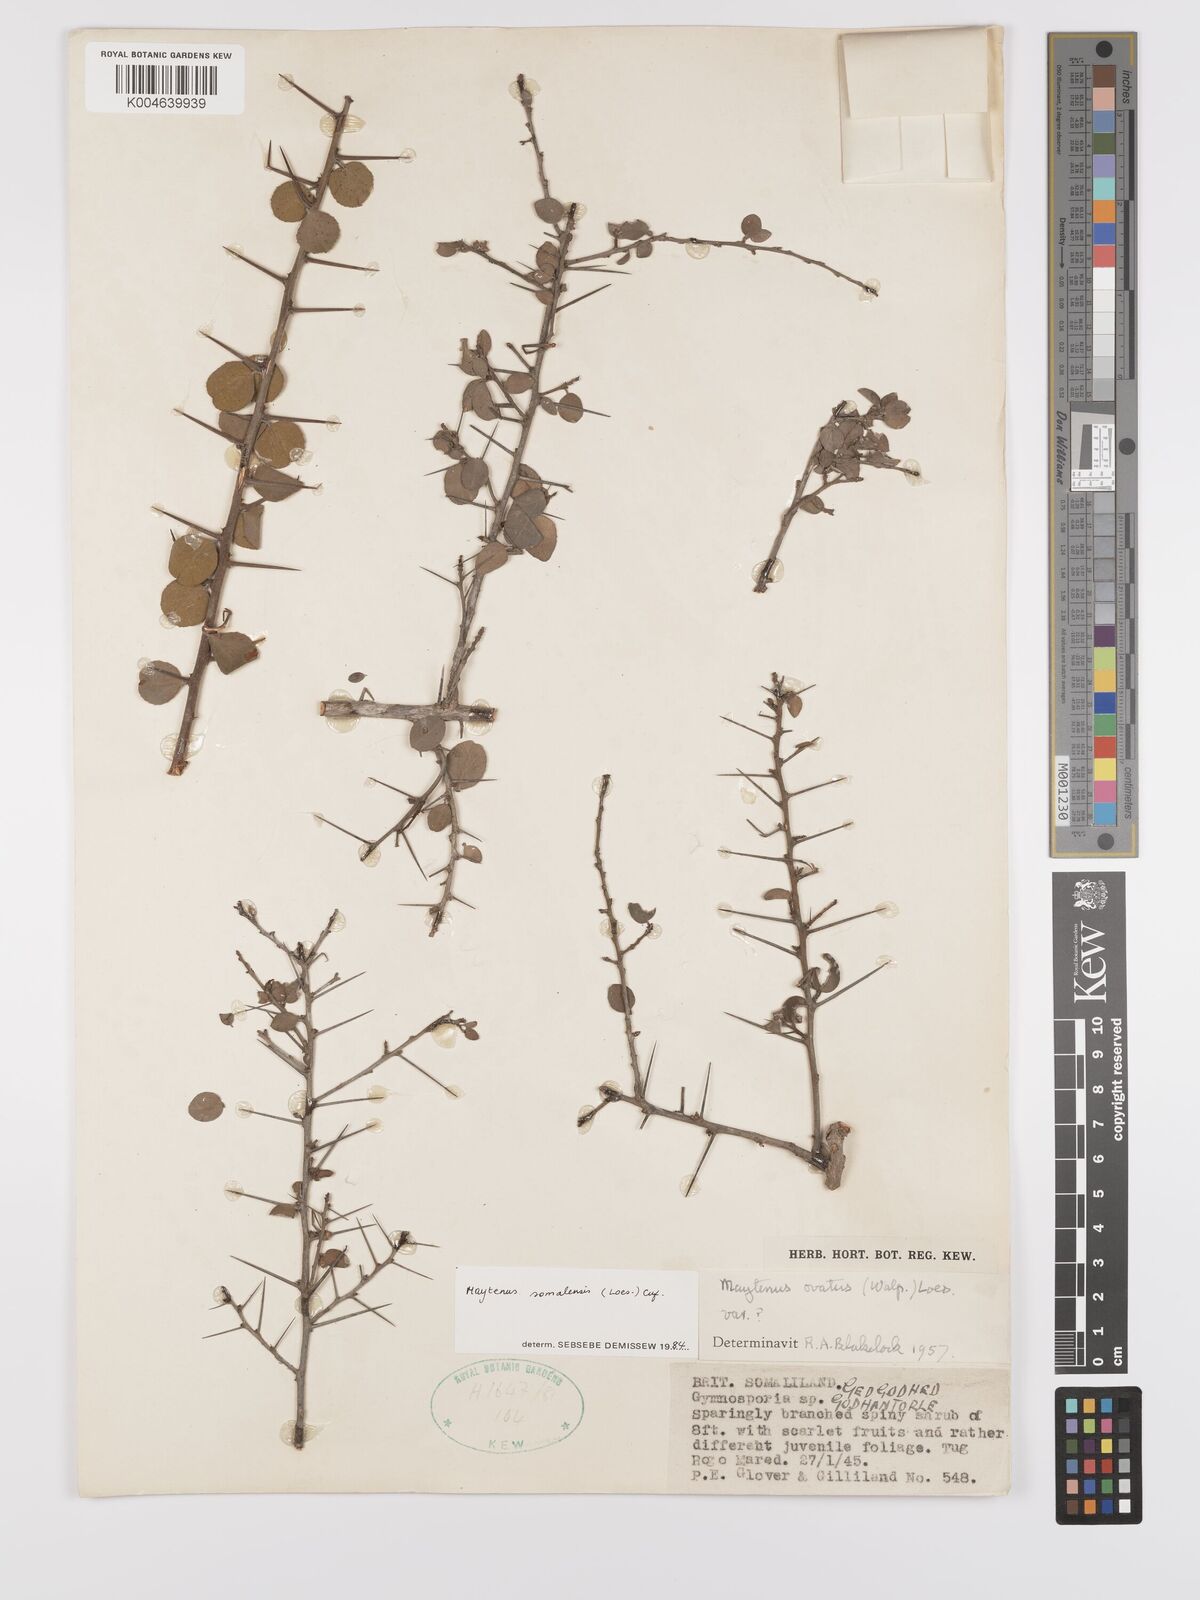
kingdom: Plantae
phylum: Tracheophyta
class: Magnoliopsida
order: Celastrales
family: Celastraceae
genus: Gymnosporia
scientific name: Gymnosporia somalensis
